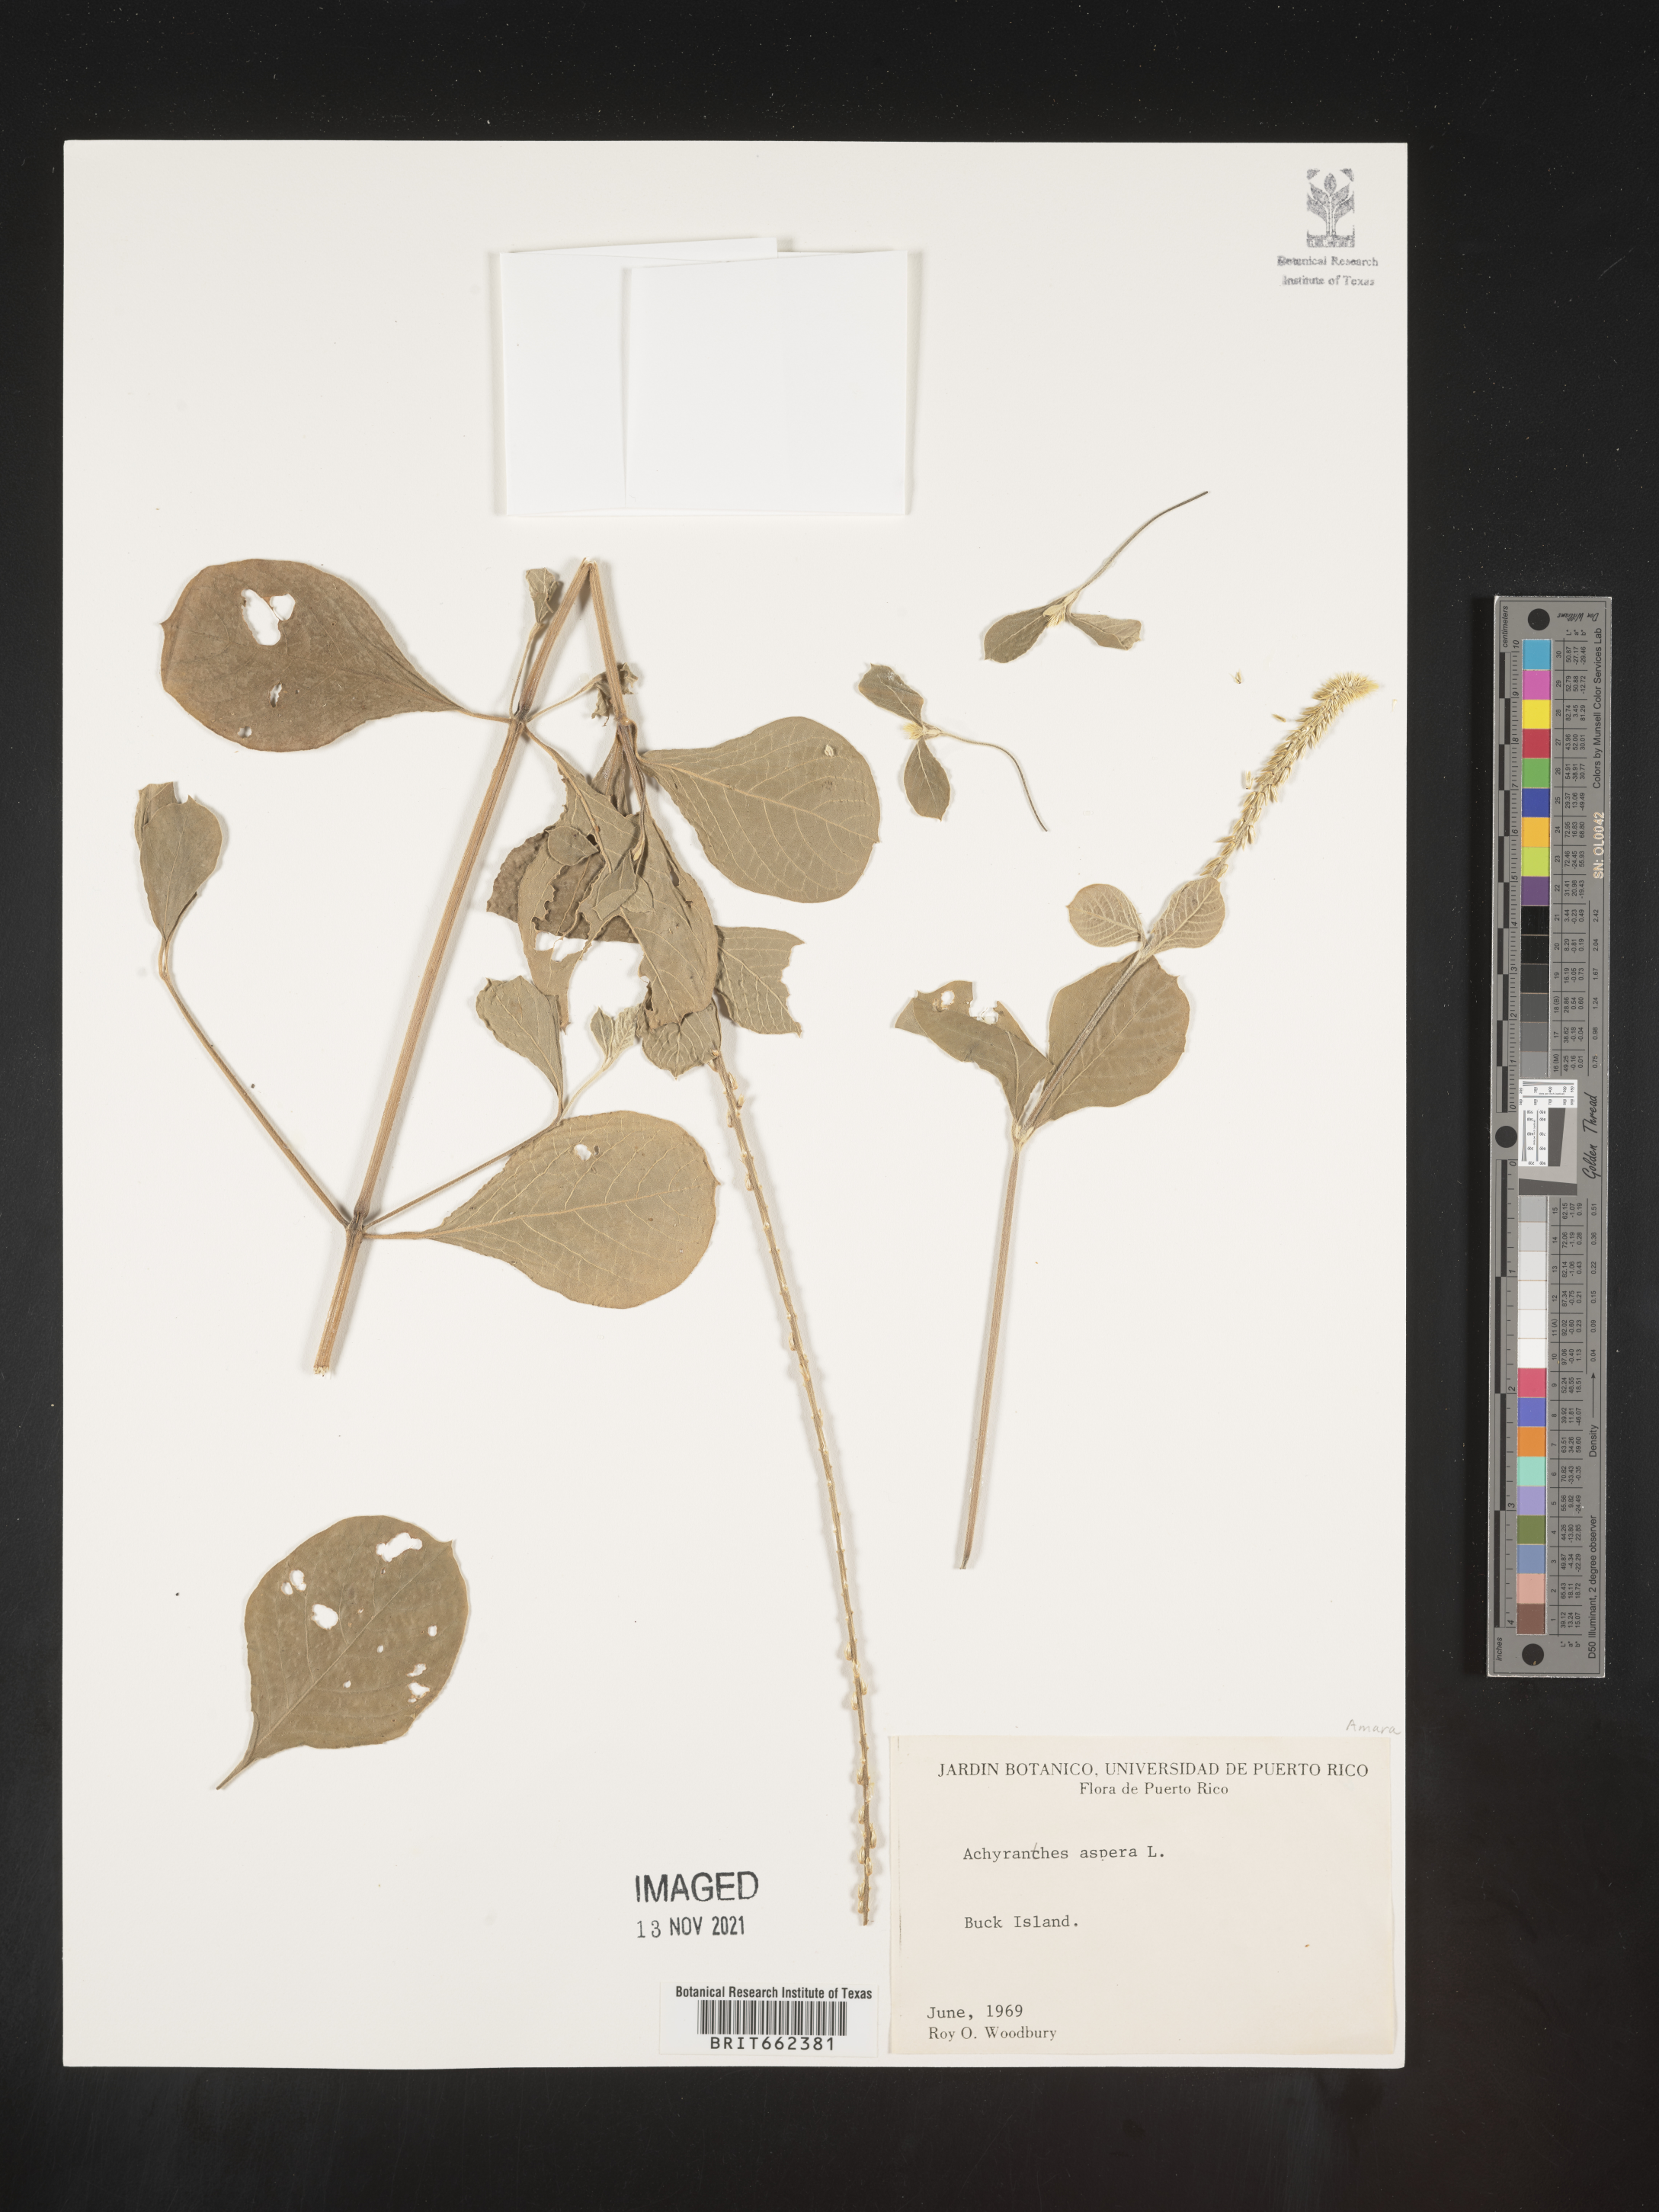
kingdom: Plantae
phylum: Tracheophyta
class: Magnoliopsida
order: Caryophyllales
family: Amaranthaceae
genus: Achyranthes
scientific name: Achyranthes
